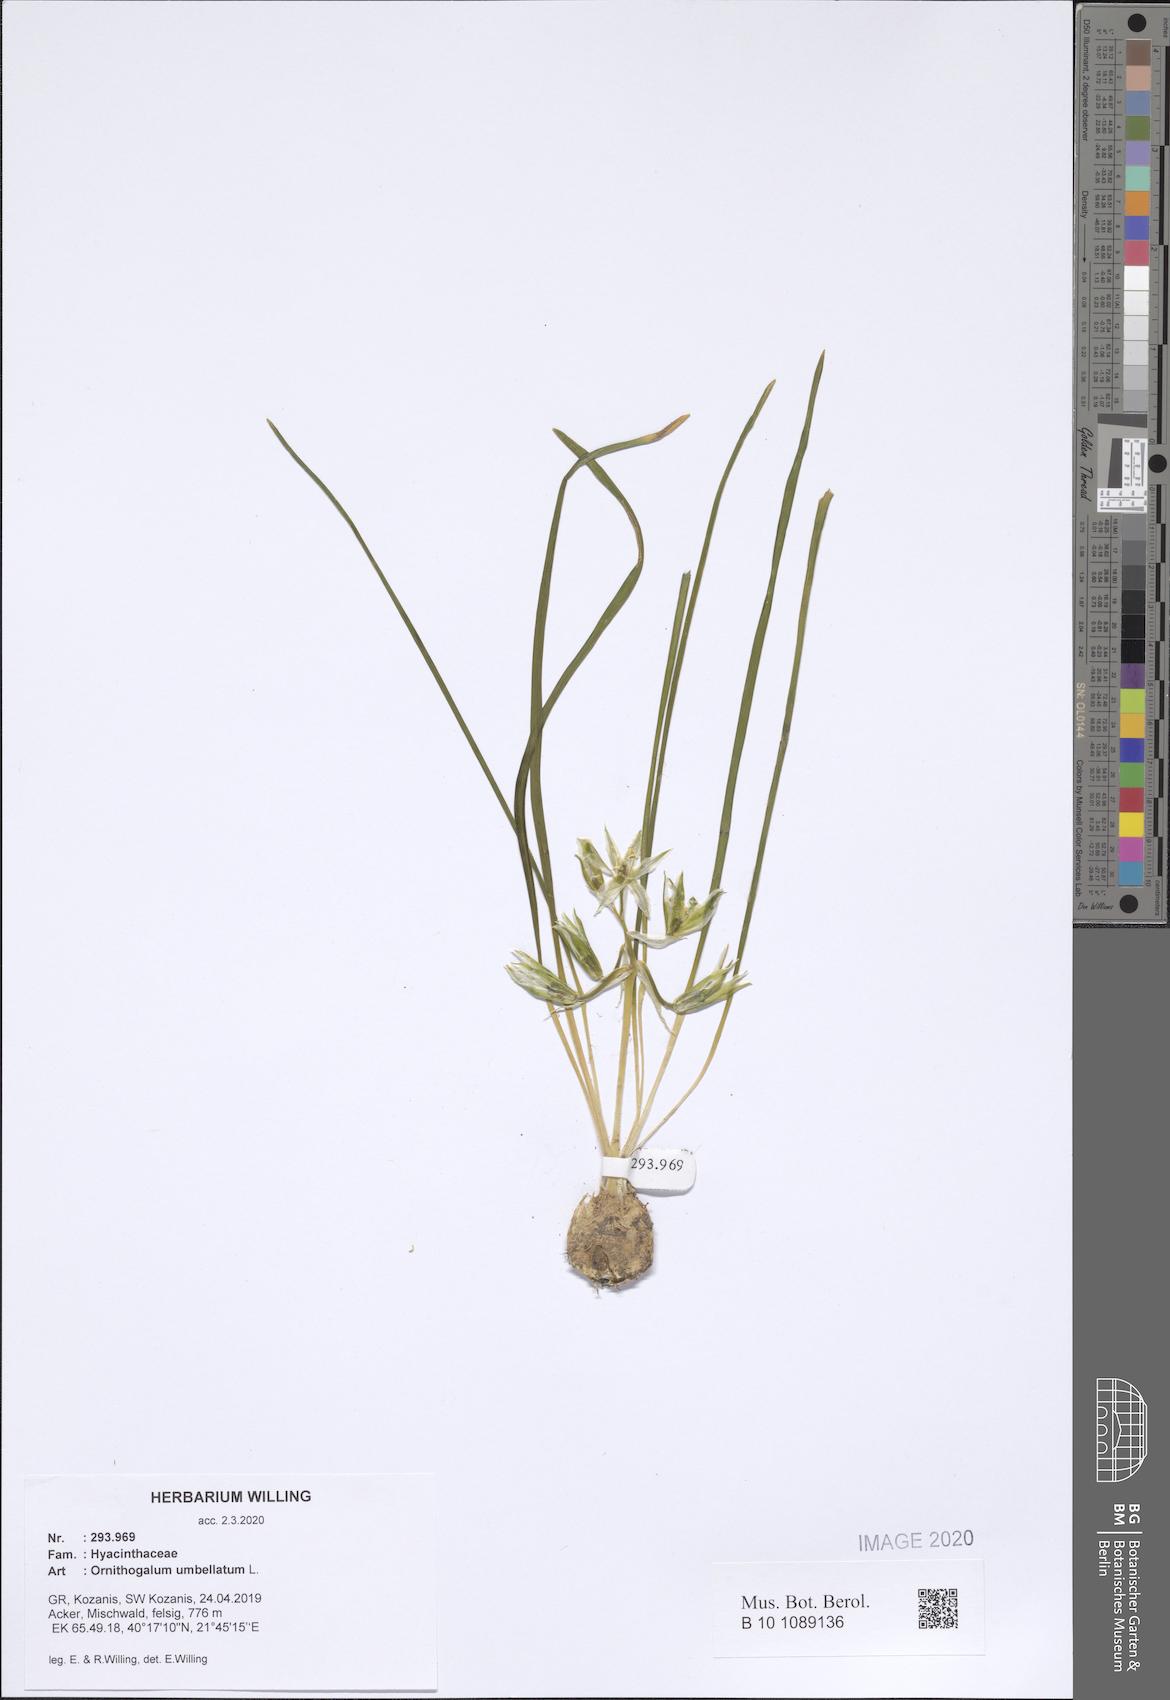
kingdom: Plantae
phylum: Tracheophyta
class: Liliopsida
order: Asparagales
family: Asparagaceae
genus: Ornithogalum
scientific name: Ornithogalum umbellatum
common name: Garden star-of-bethlehem
